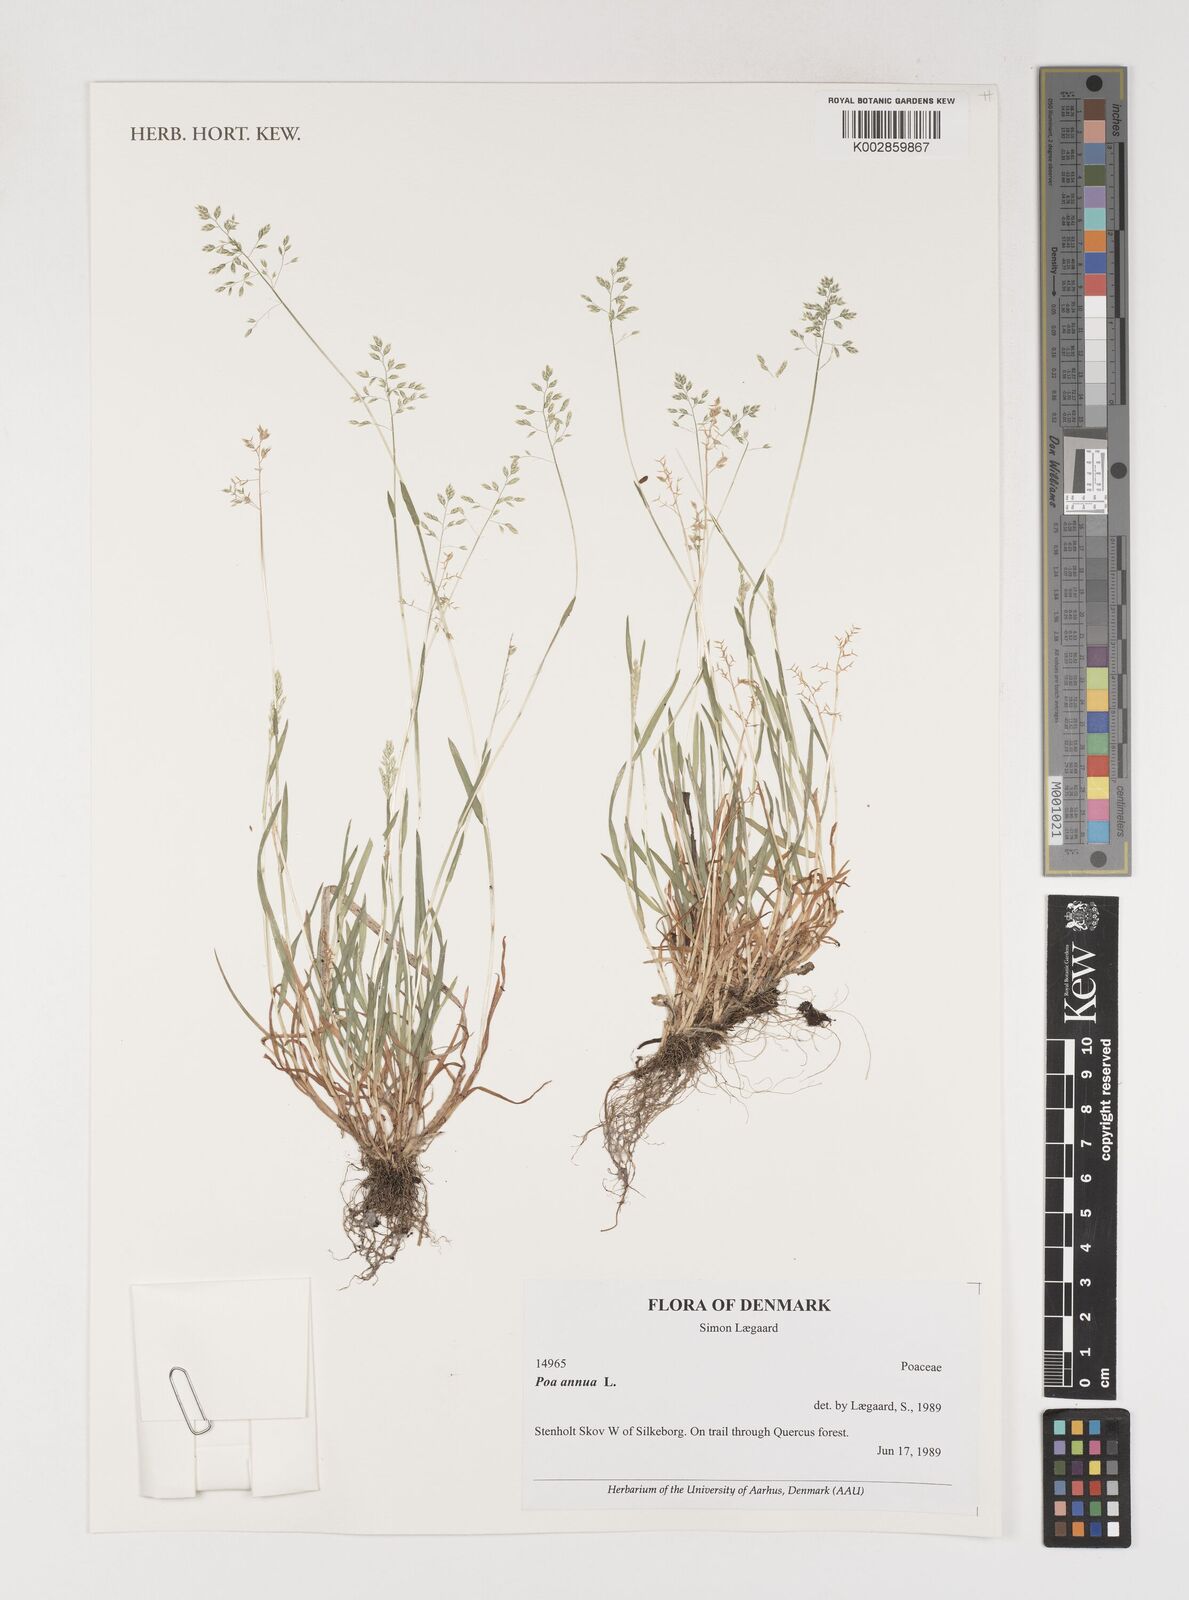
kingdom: Plantae
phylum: Tracheophyta
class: Liliopsida
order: Poales
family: Poaceae
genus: Poa
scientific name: Poa annua
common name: Annual bluegrass
